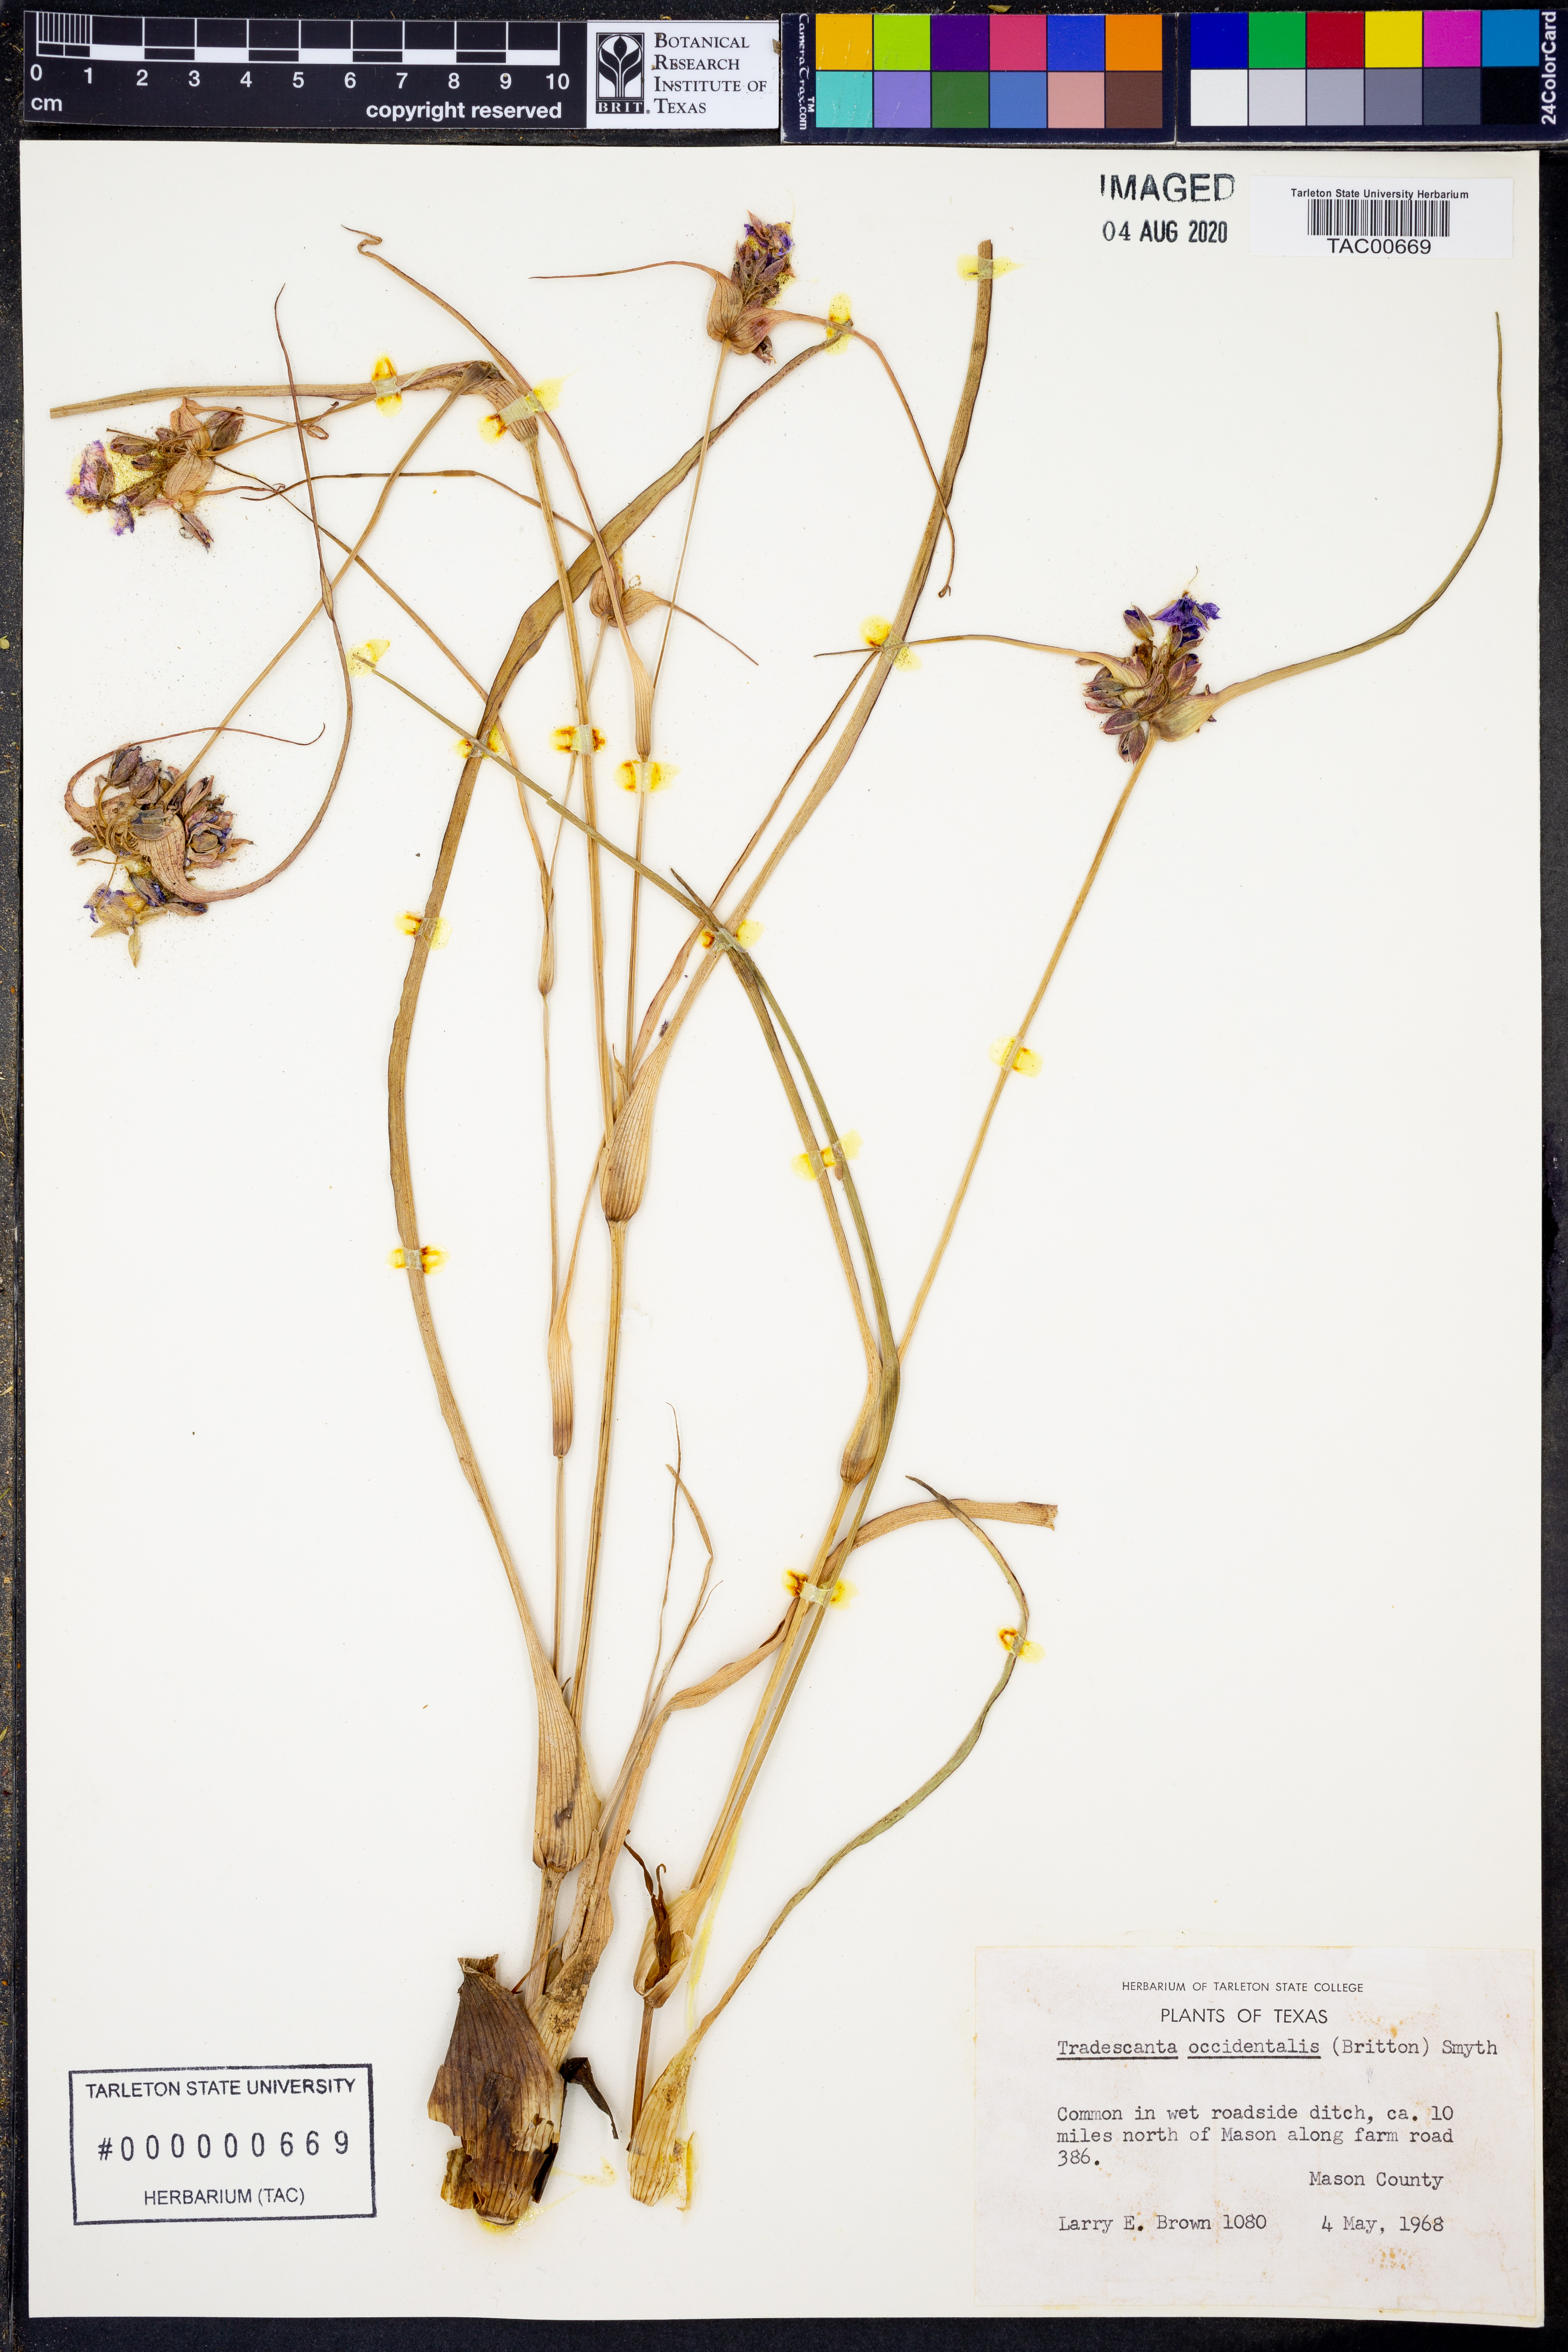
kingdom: Plantae
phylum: Tracheophyta
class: Liliopsida
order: Commelinales
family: Commelinaceae
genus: Tradescantia
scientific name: Tradescantia occidentalis
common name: Prairie spiderwort
